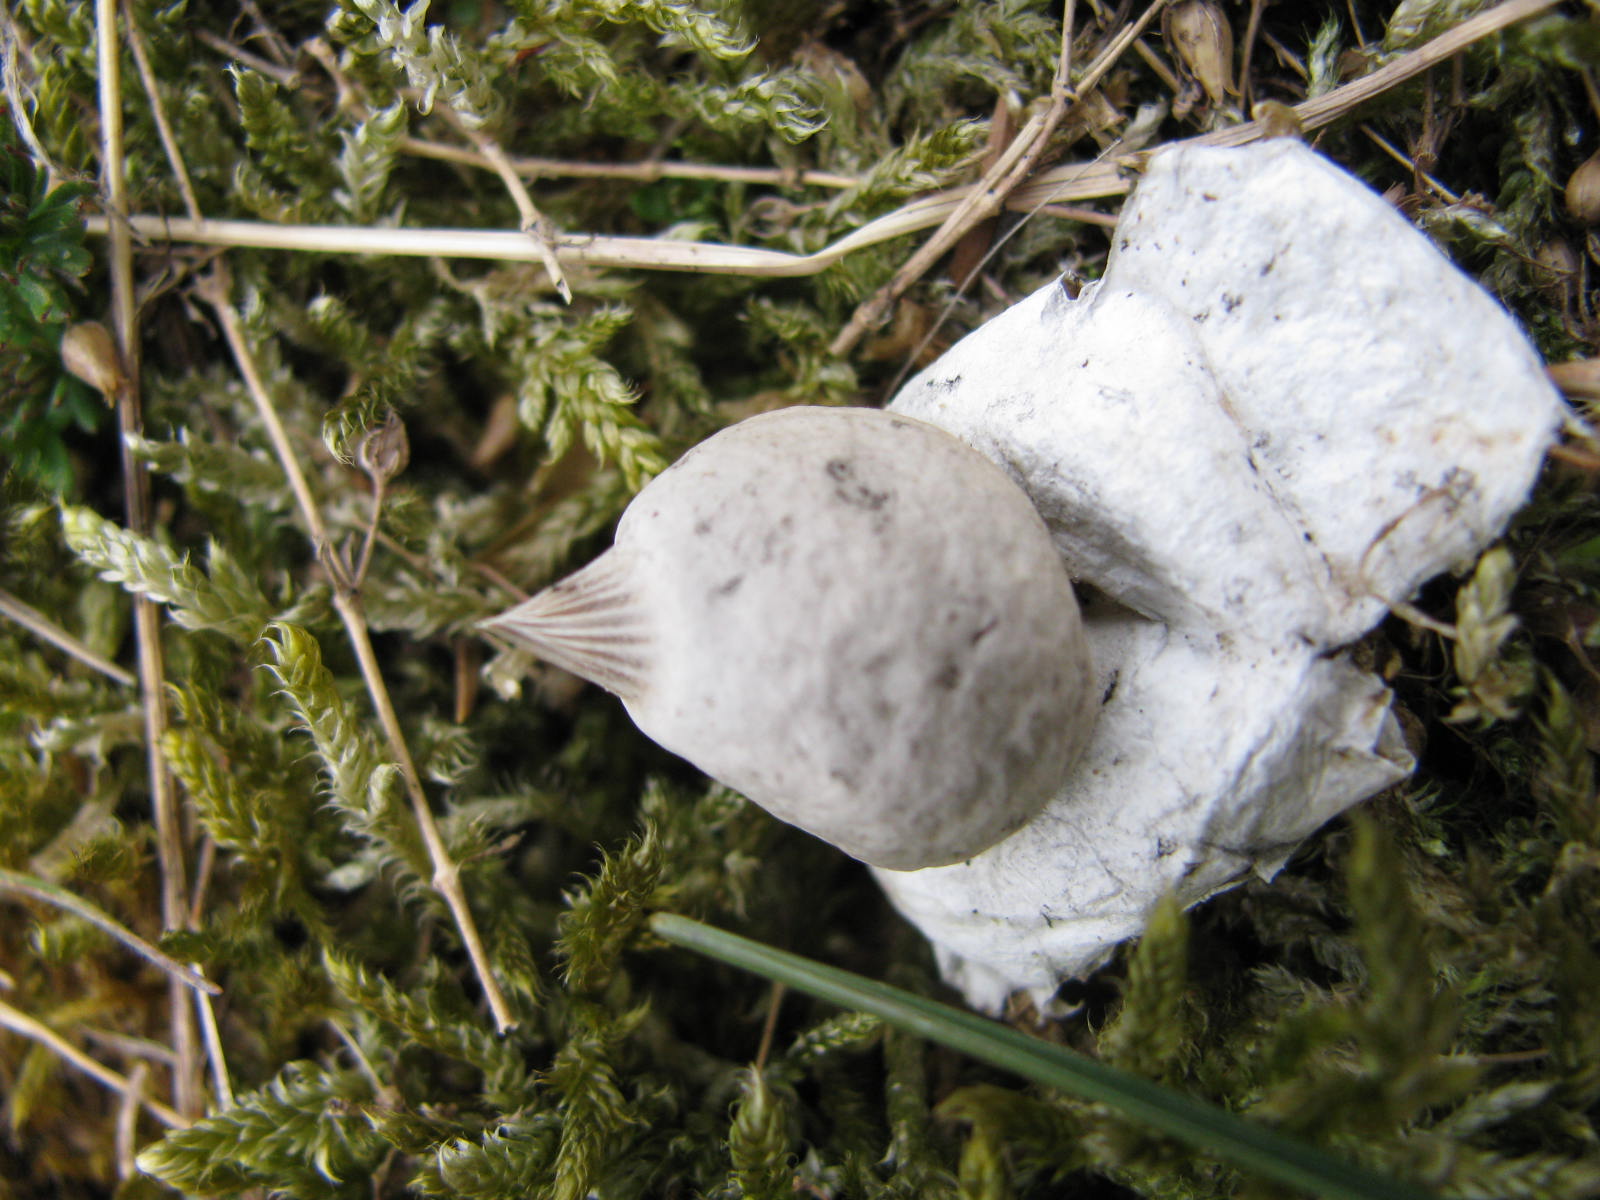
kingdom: Fungi
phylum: Basidiomycota
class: Agaricomycetes
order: Geastrales
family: Geastraceae
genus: Geastrum
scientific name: Geastrum striatum
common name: dværg-stjernebold
